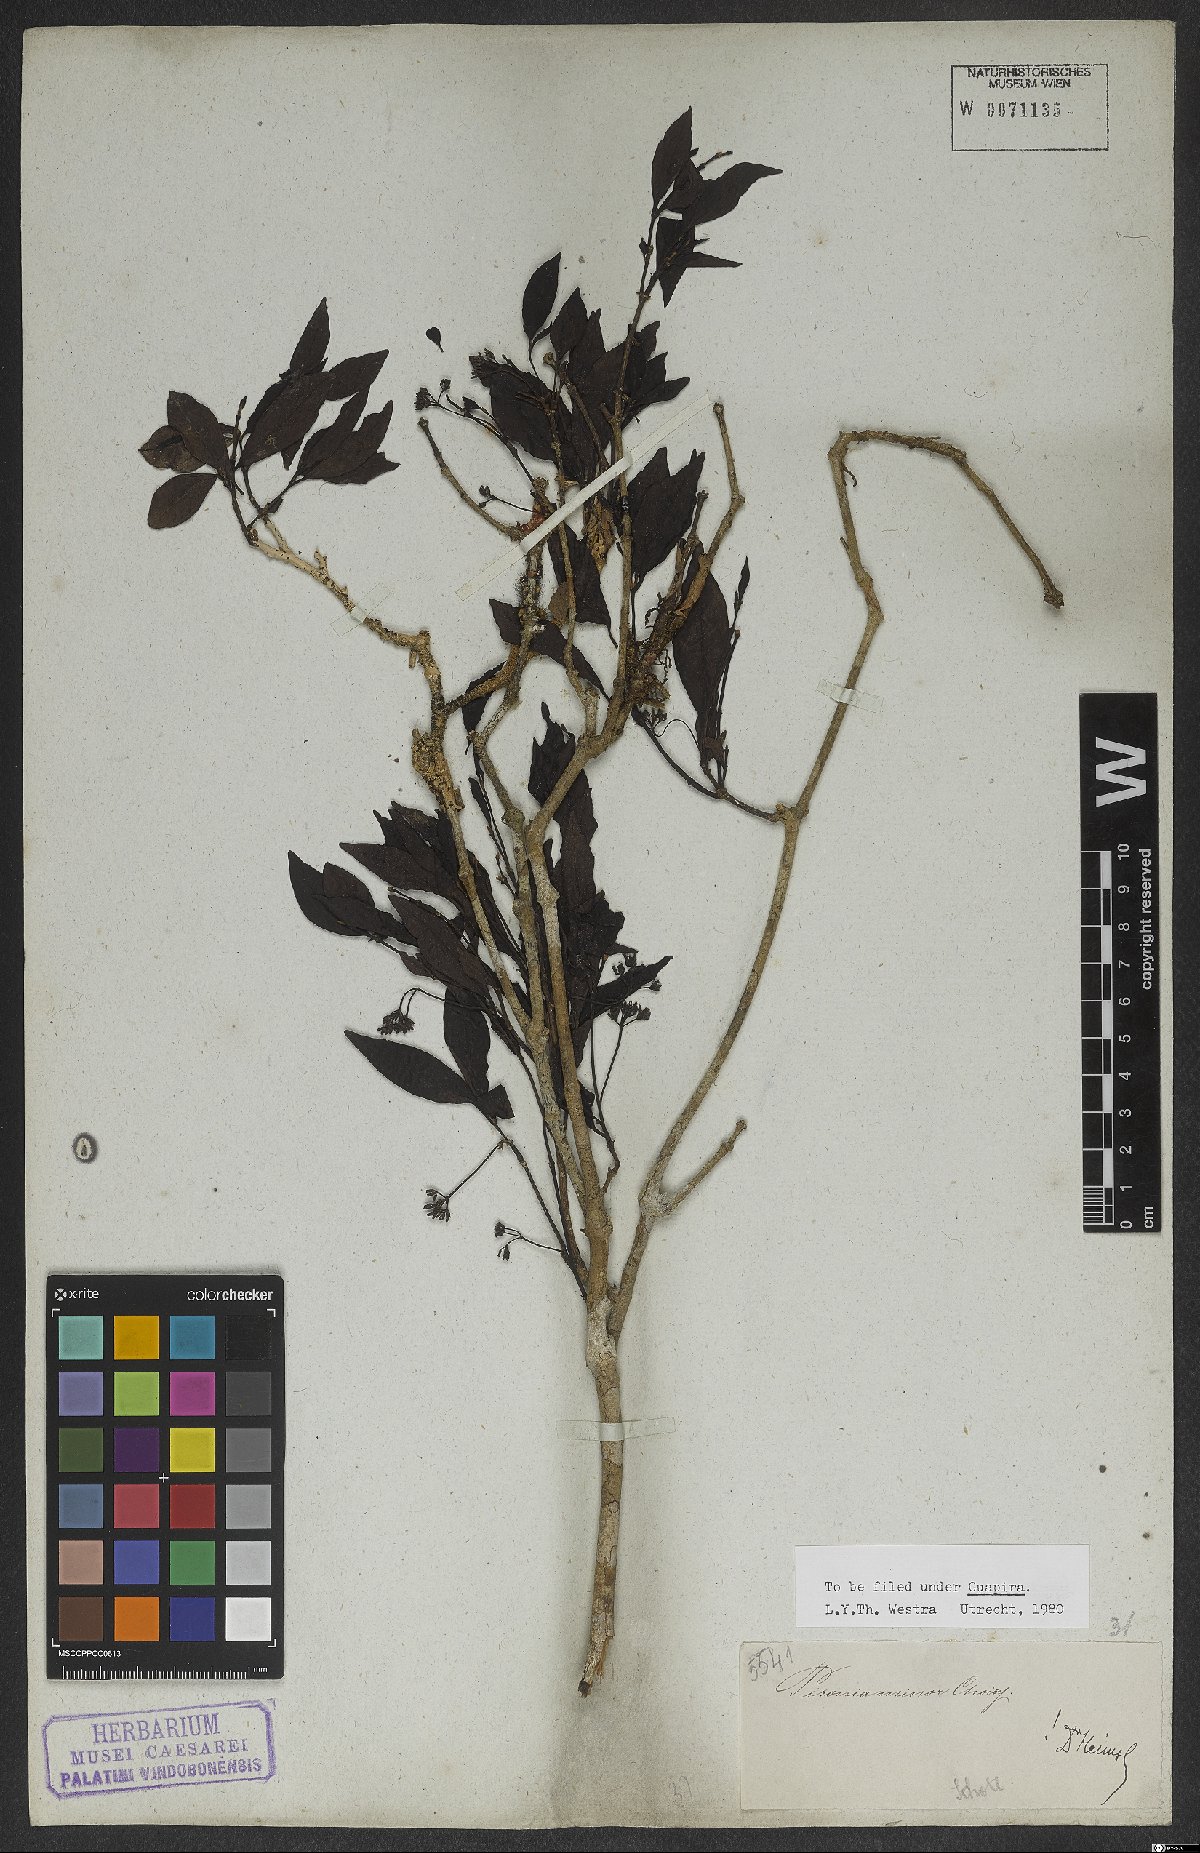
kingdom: Plantae
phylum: Tracheophyta
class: Magnoliopsida
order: Caryophyllales
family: Nyctaginaceae
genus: Pisonia
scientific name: Pisonia aculeata
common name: Cockspur vine
